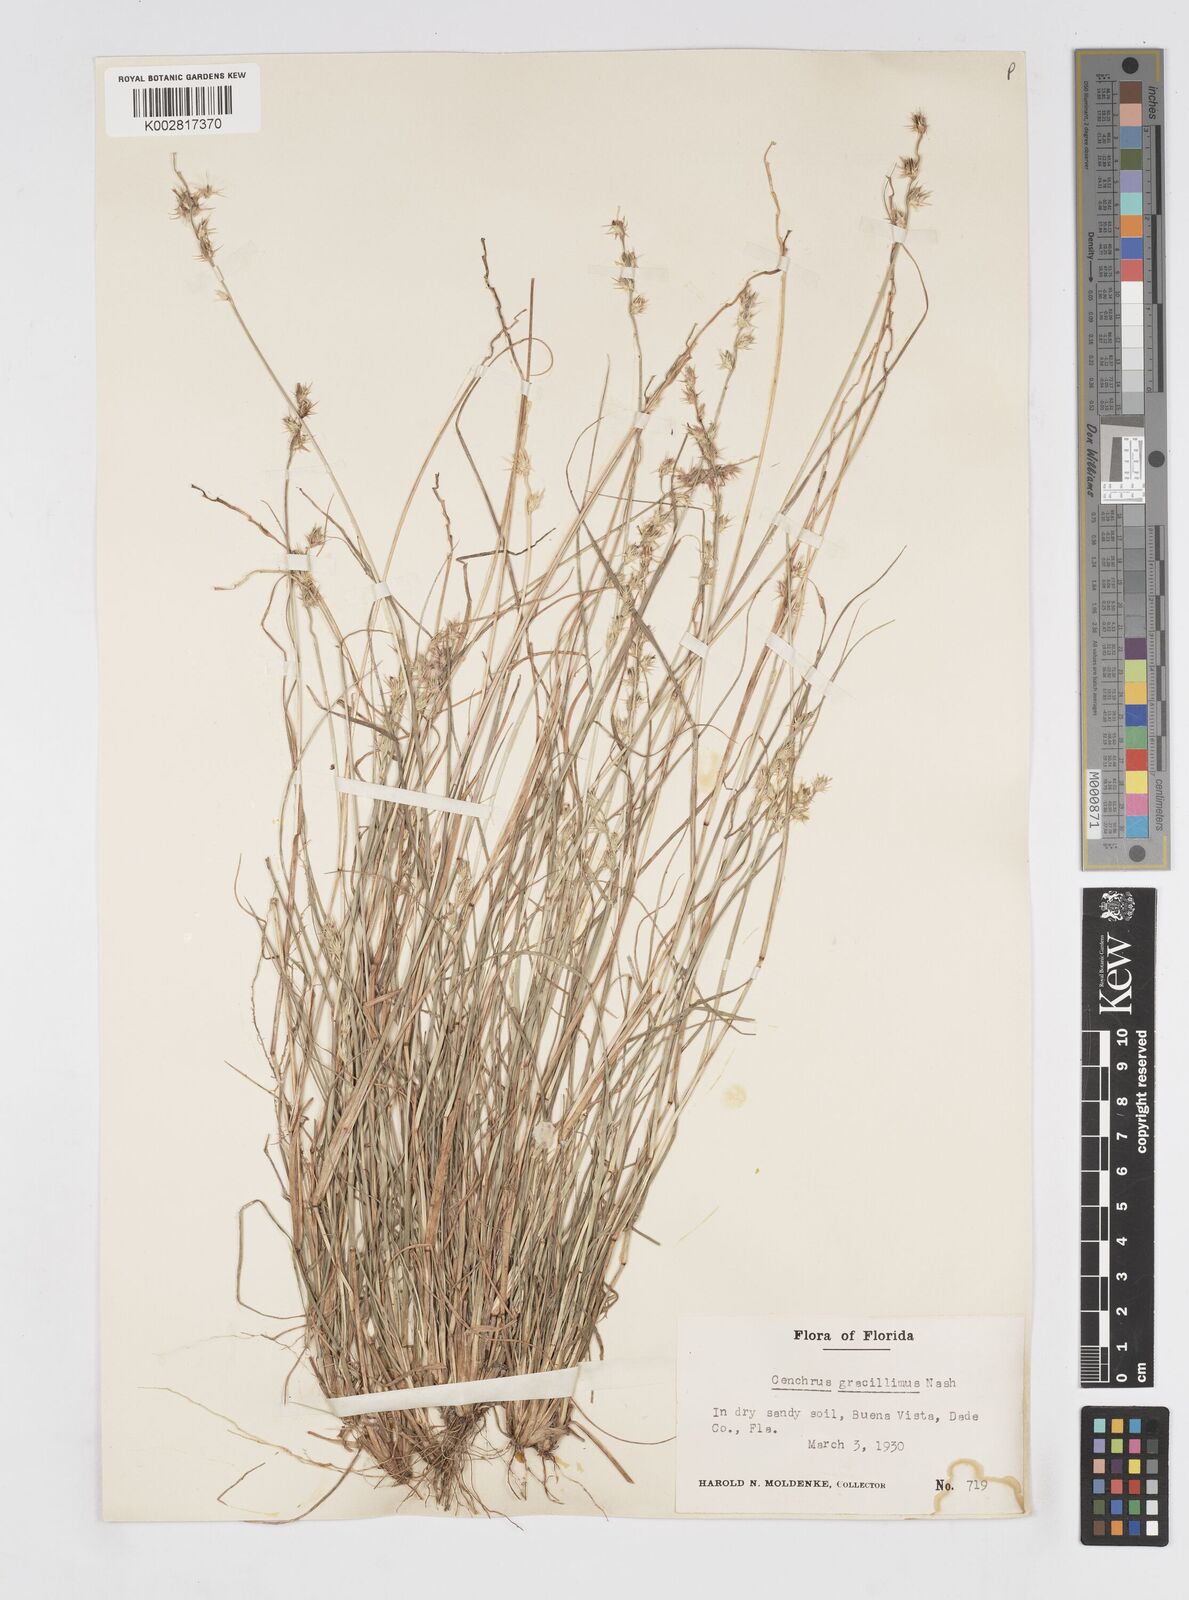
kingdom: Plantae
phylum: Tracheophyta
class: Liliopsida
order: Poales
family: Poaceae
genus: Cenchrus
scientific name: Cenchrus gracillimus
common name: Slender sandbur
